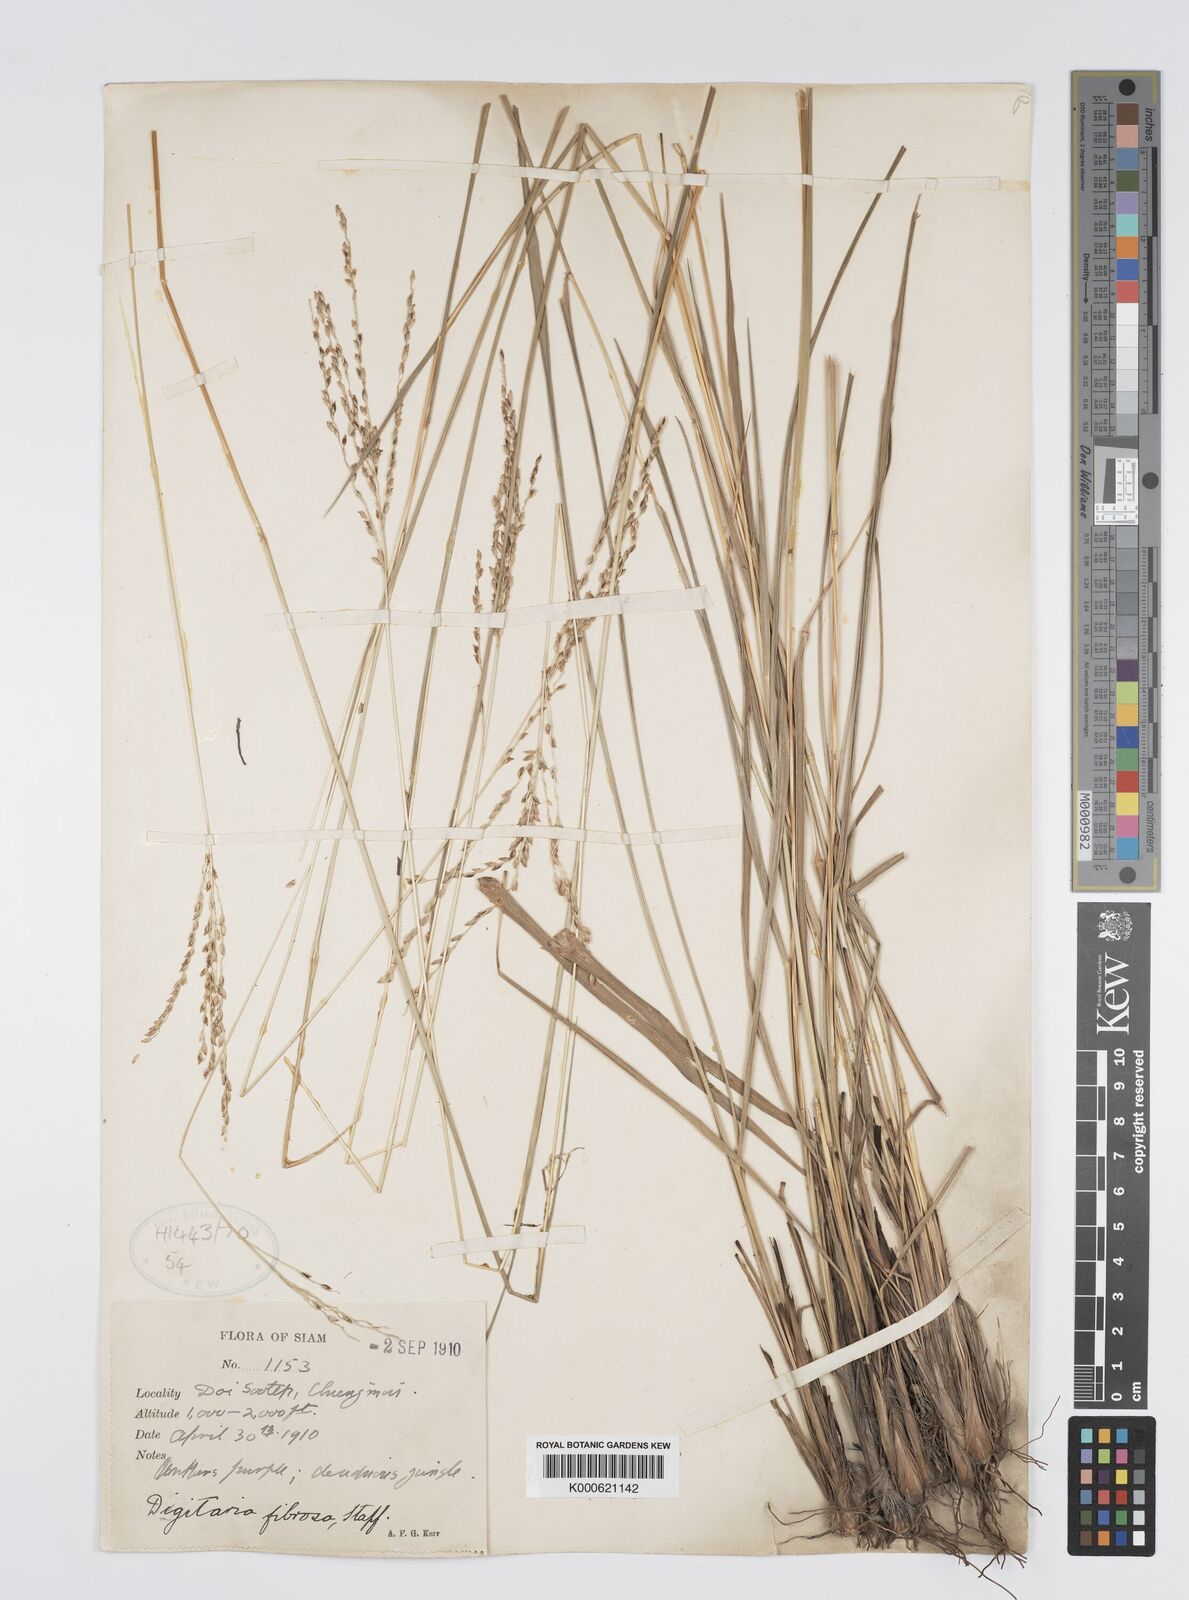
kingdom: Plantae
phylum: Tracheophyta
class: Liliopsida
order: Poales
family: Poaceae
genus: Digitaria
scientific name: Digitaria setifolia
